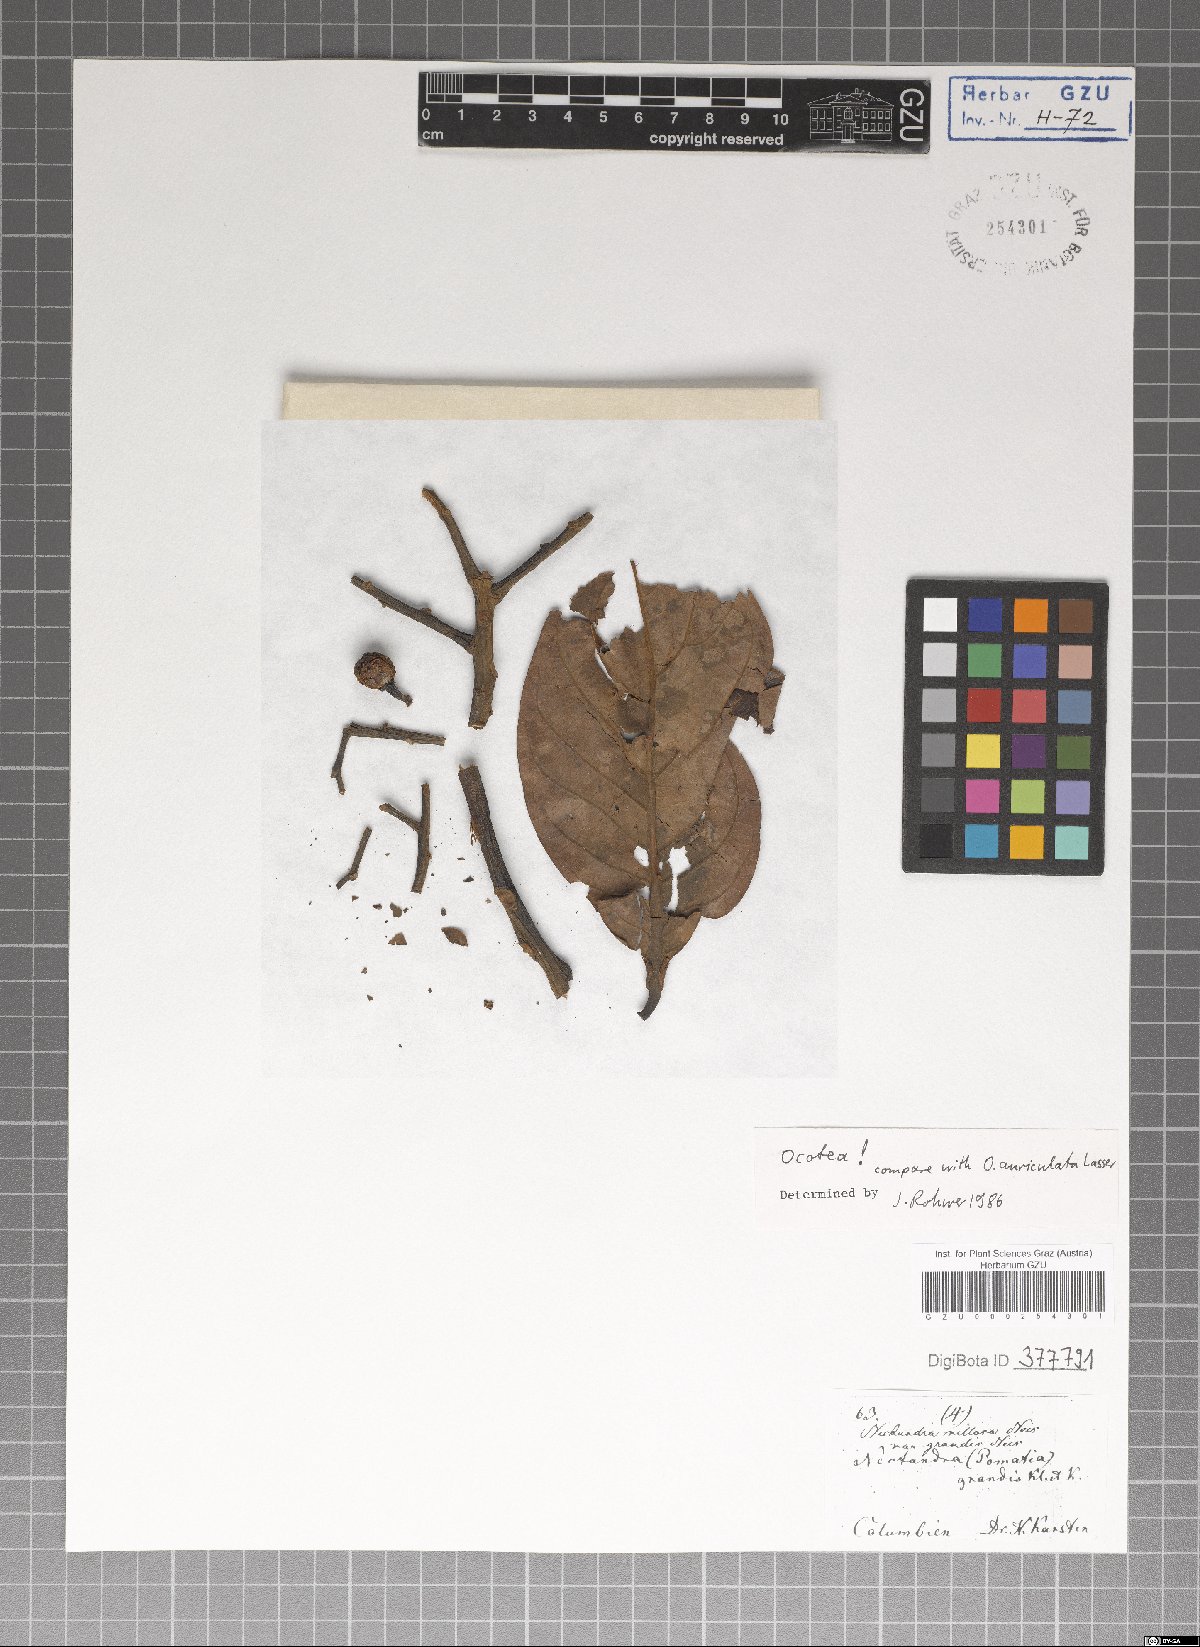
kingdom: Plantae
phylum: Tracheophyta
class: Magnoliopsida
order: Laurales
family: Lauraceae
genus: Ocotea
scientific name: Ocotea
